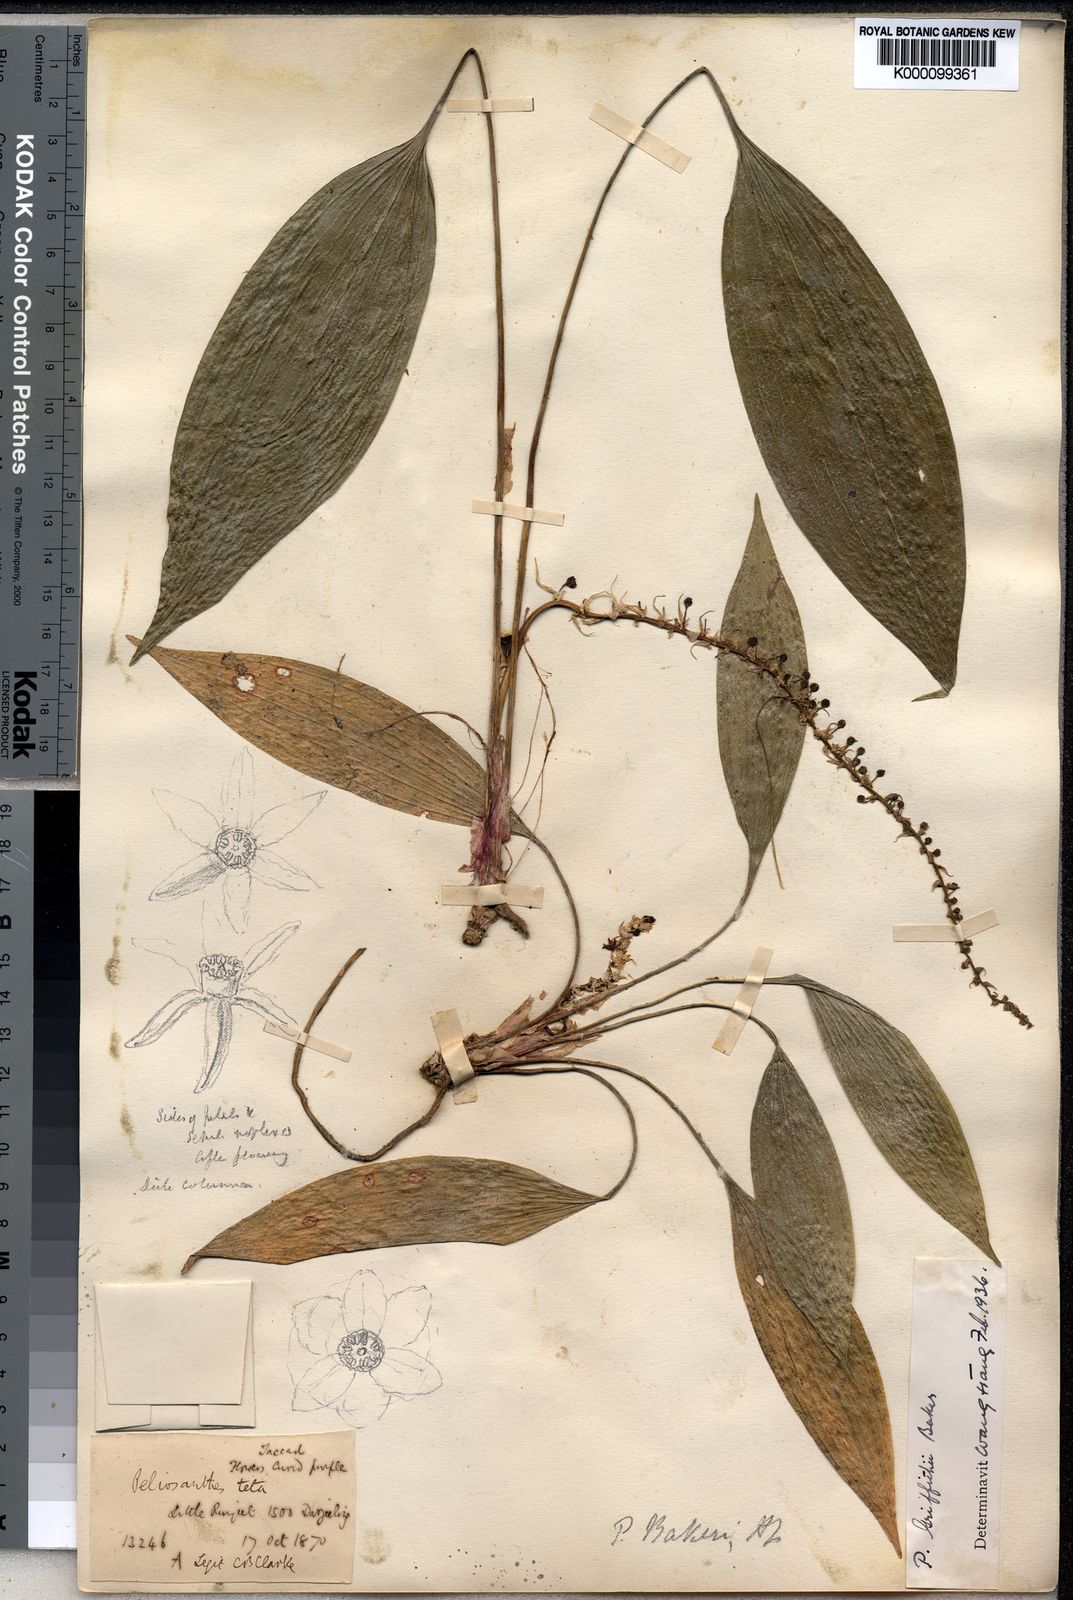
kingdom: Plantae
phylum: Tracheophyta
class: Liliopsida
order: Asparagales
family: Asparagaceae
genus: Peliosanthes
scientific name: Peliosanthes griffithii
